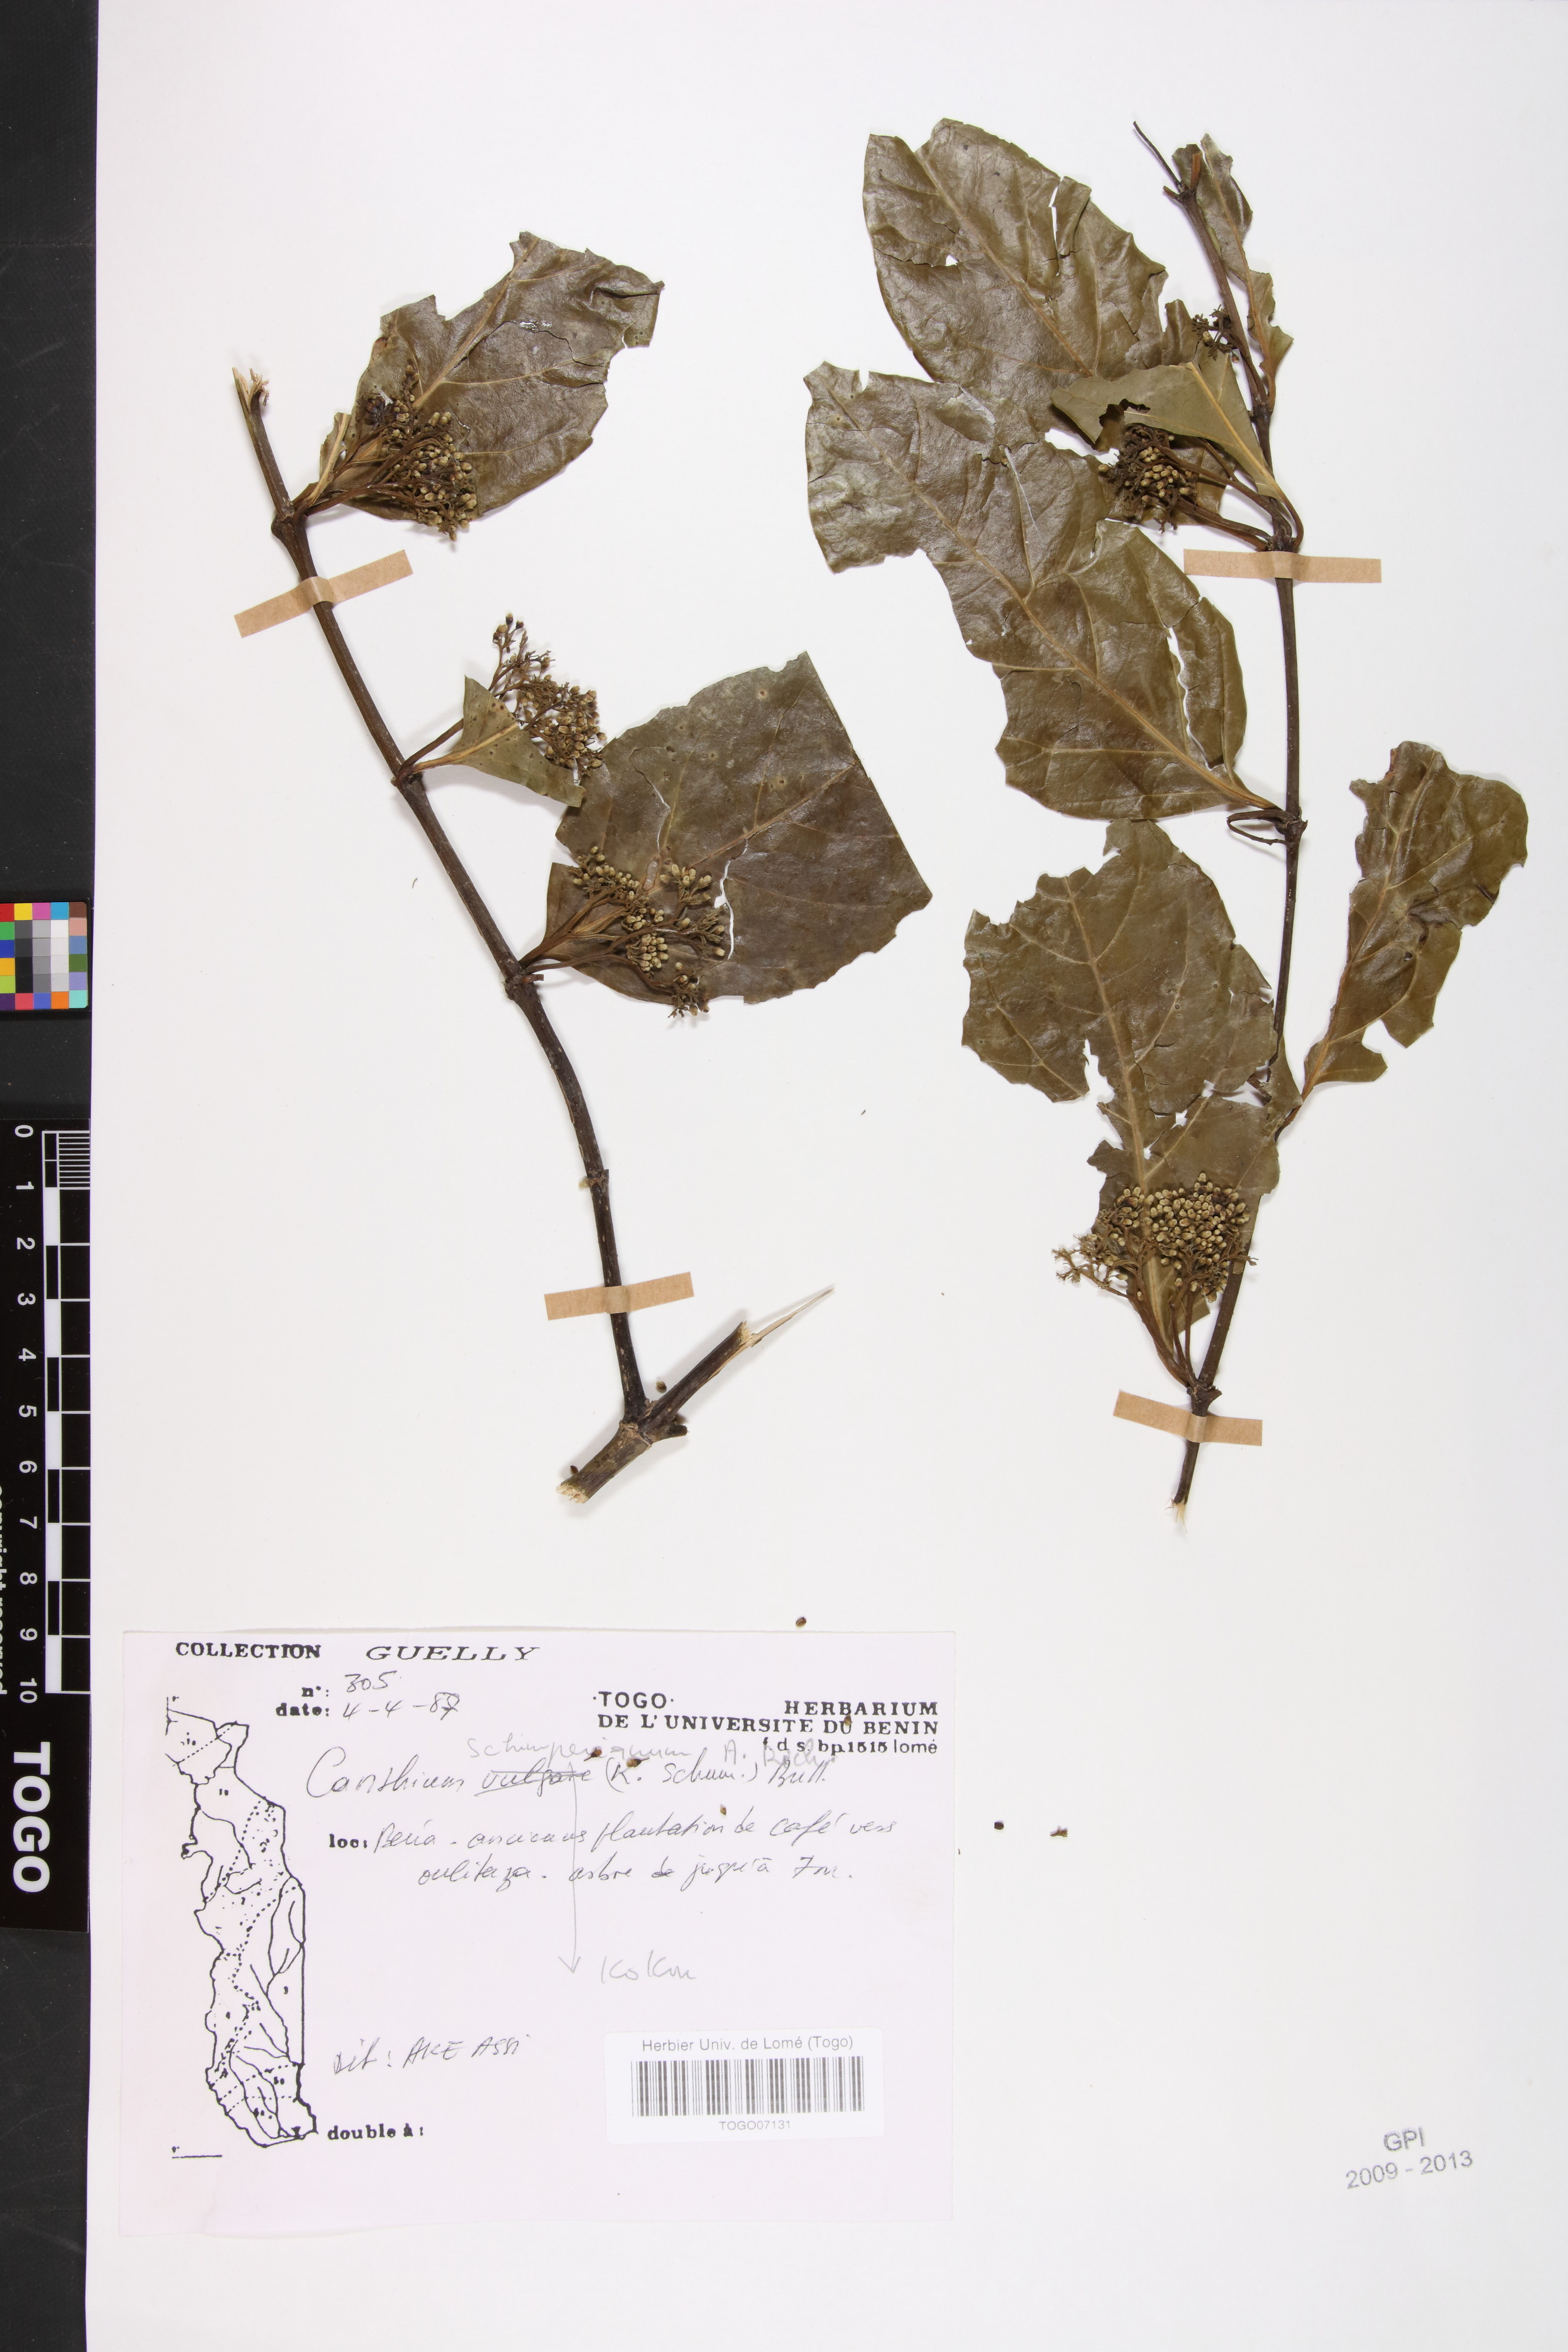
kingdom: Plantae
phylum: Tracheophyta
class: Magnoliopsida
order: Gentianales
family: Rubiaceae
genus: Psydrax
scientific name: Psydrax acutiflorus
